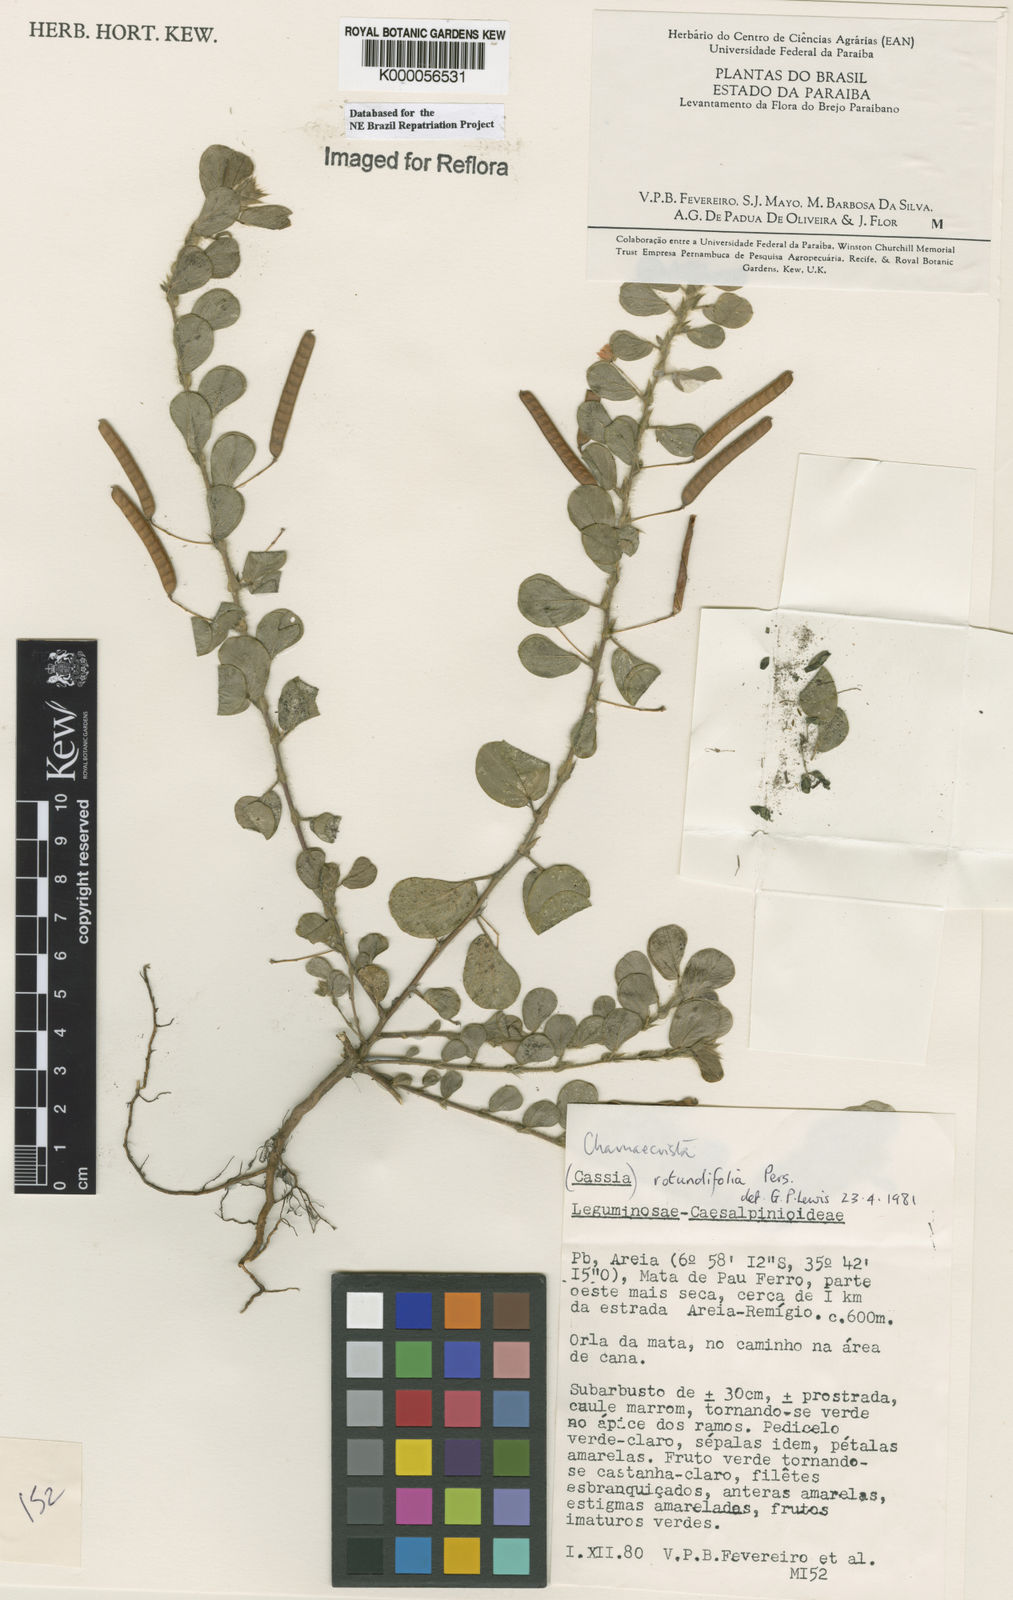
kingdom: Plantae
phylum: Tracheophyta
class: Magnoliopsida
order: Fabales
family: Fabaceae
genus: Chamaecrista
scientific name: Chamaecrista rotundifolia
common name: Round-leaf cassia
